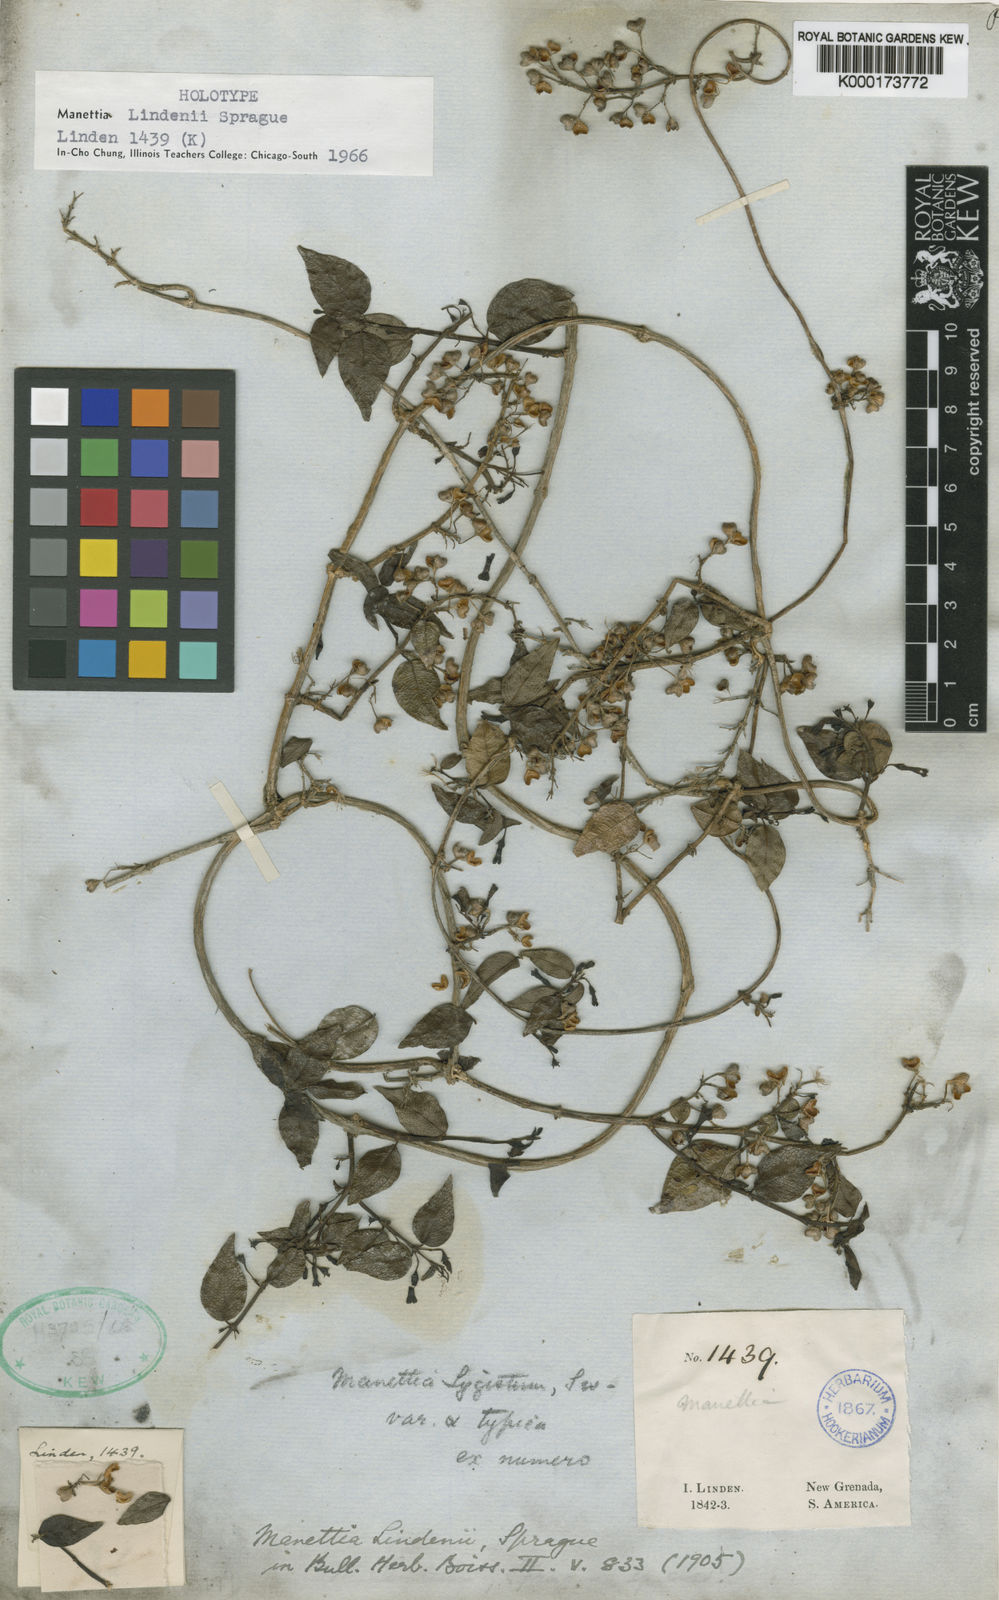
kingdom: Plantae
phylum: Tracheophyta
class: Magnoliopsida
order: Gentianales
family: Rubiaceae
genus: Manettia
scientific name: Manettia lindenii
